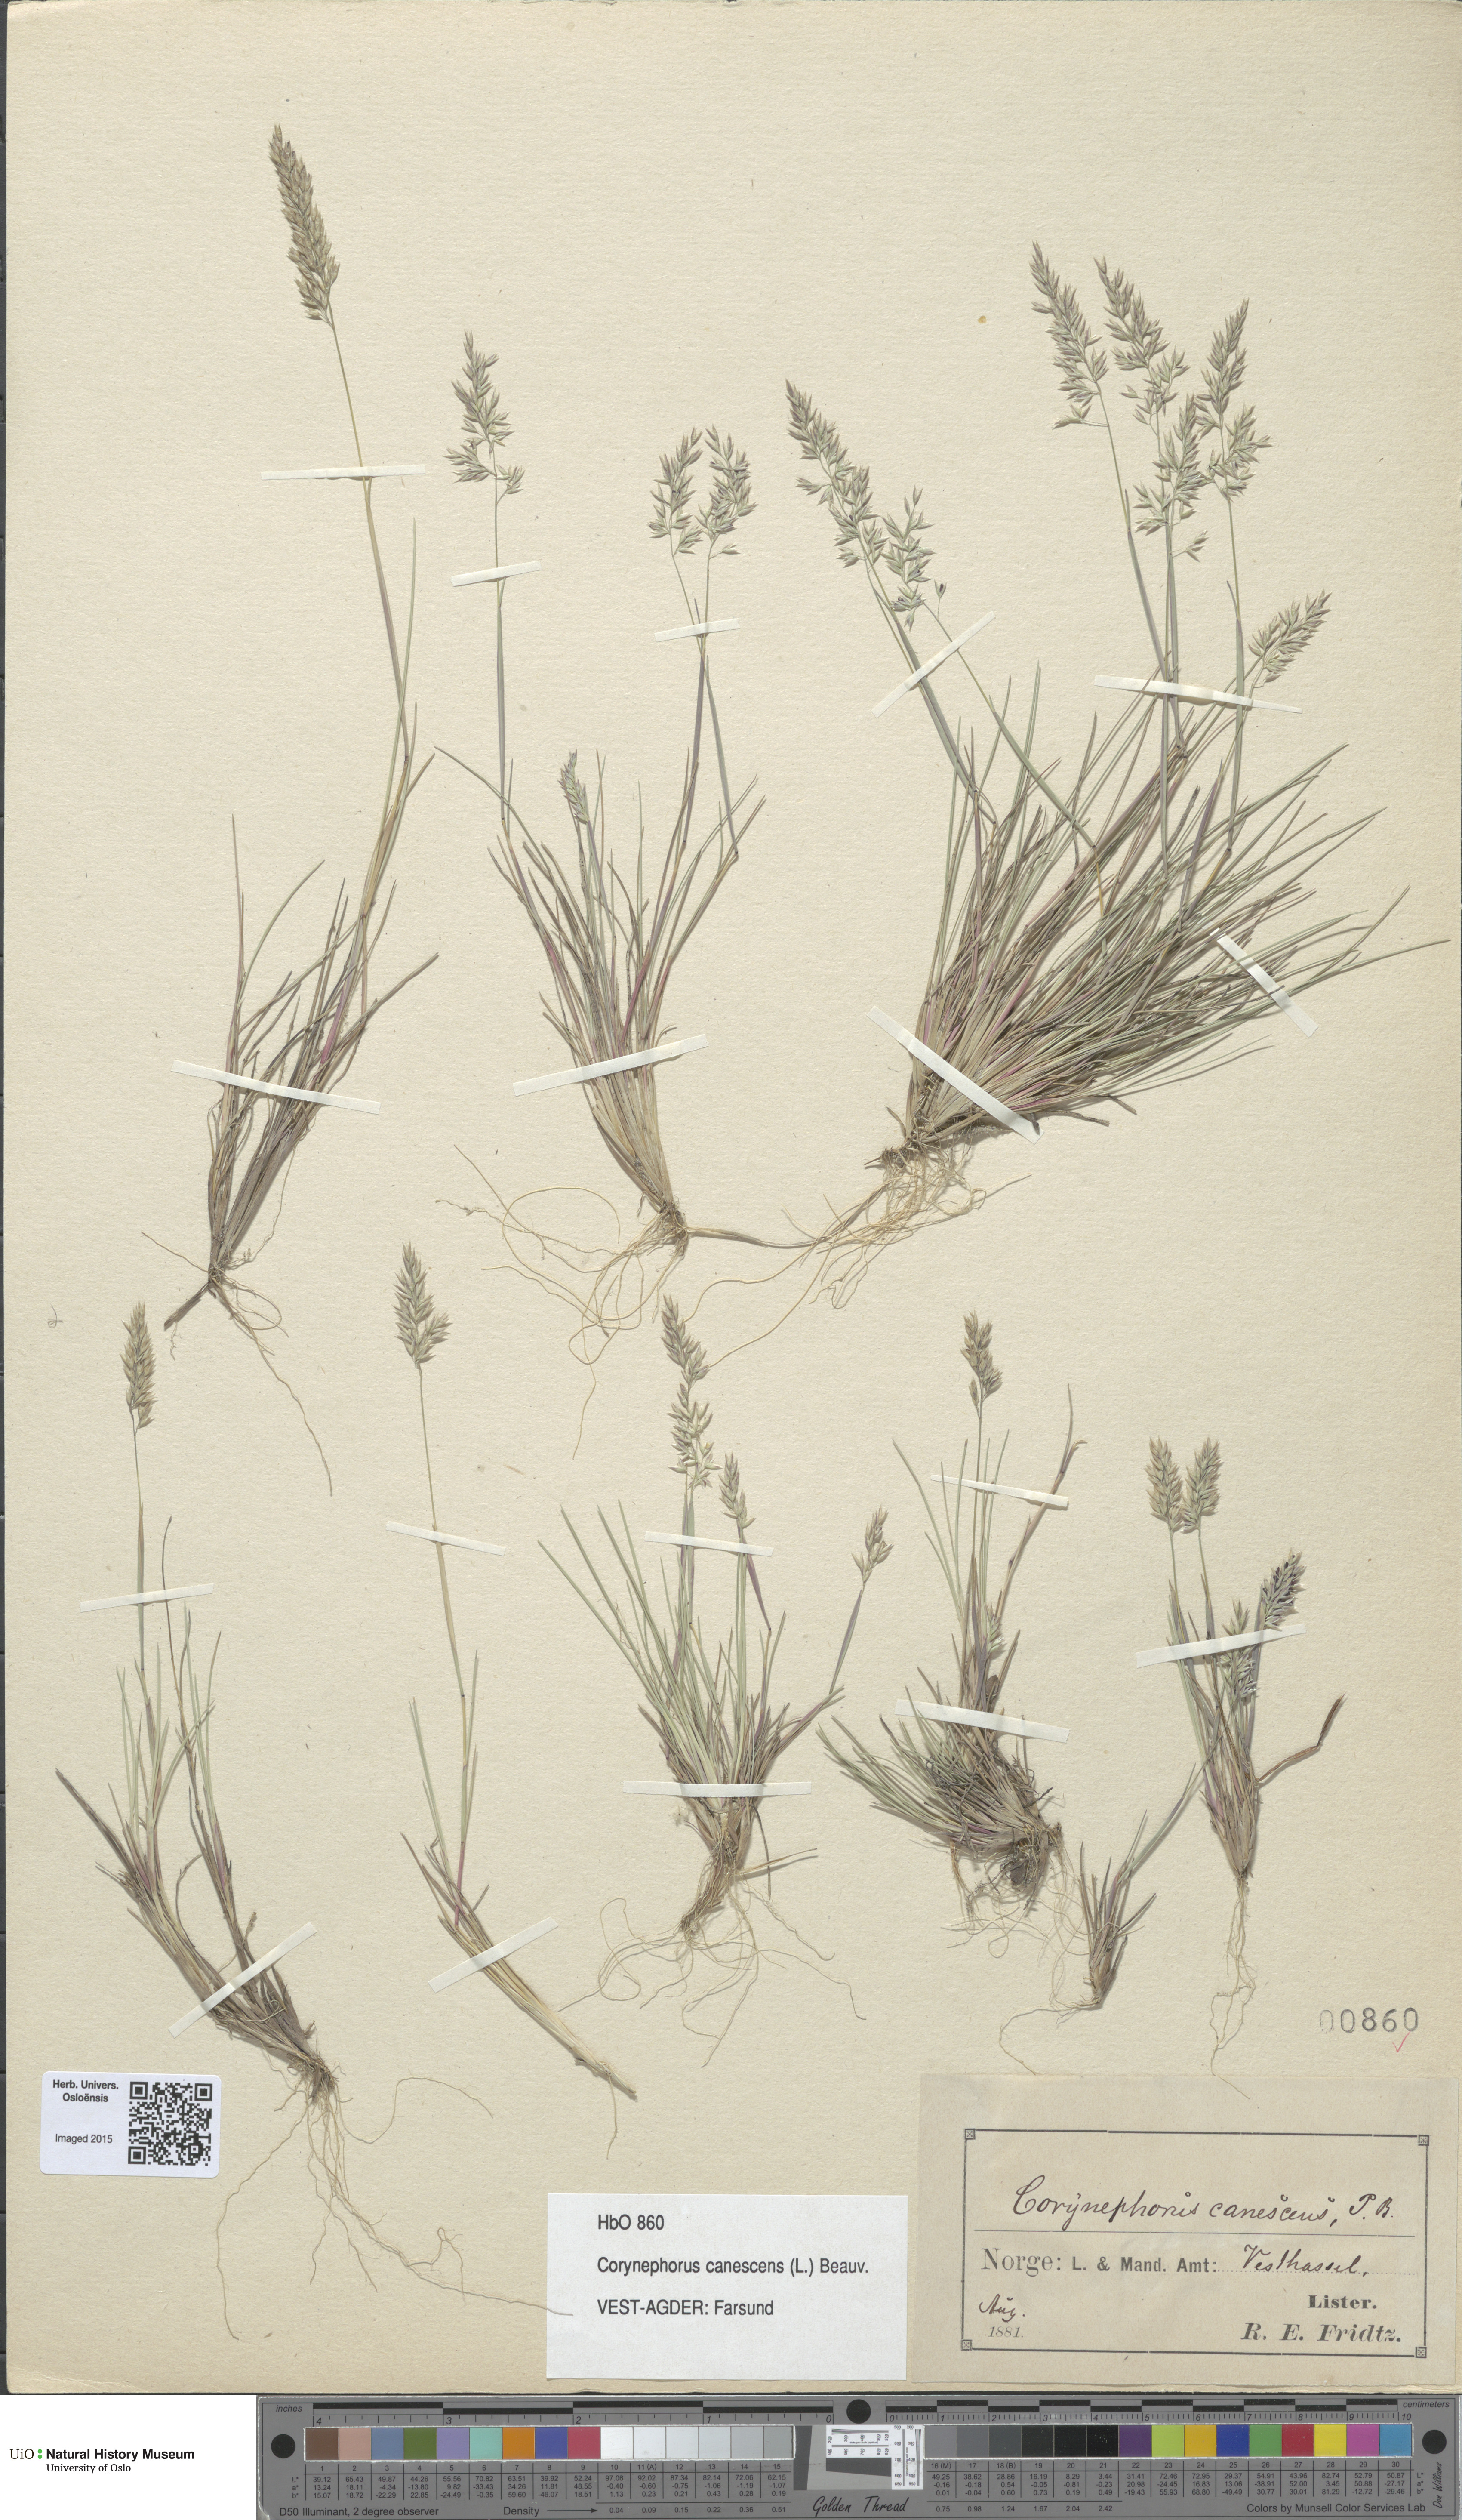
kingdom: Plantae
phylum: Tracheophyta
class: Liliopsida
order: Poales
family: Poaceae
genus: Corynephorus
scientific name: Corynephorus canescens
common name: Grey hair-grass
